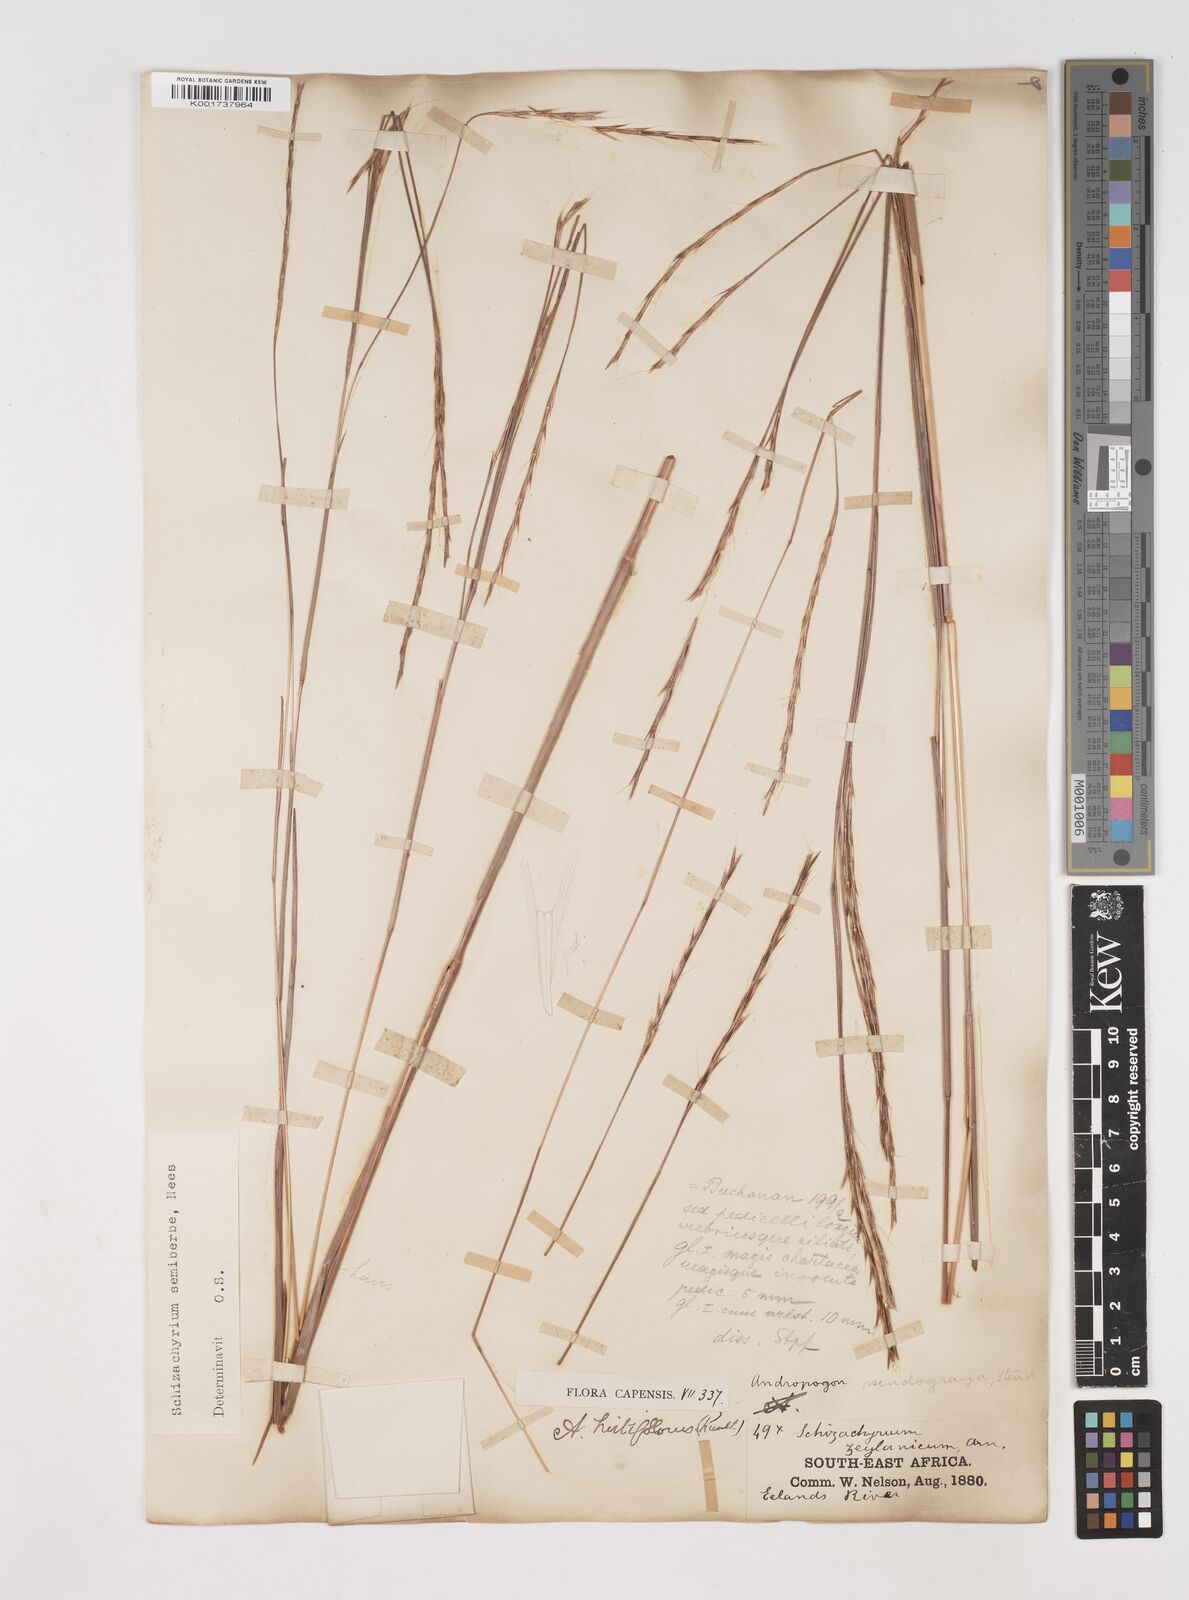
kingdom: Plantae
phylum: Tracheophyta
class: Liliopsida
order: Poales
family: Poaceae
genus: Schizachyrium
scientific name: Schizachyrium sanguineum
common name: Crimson bluestem
